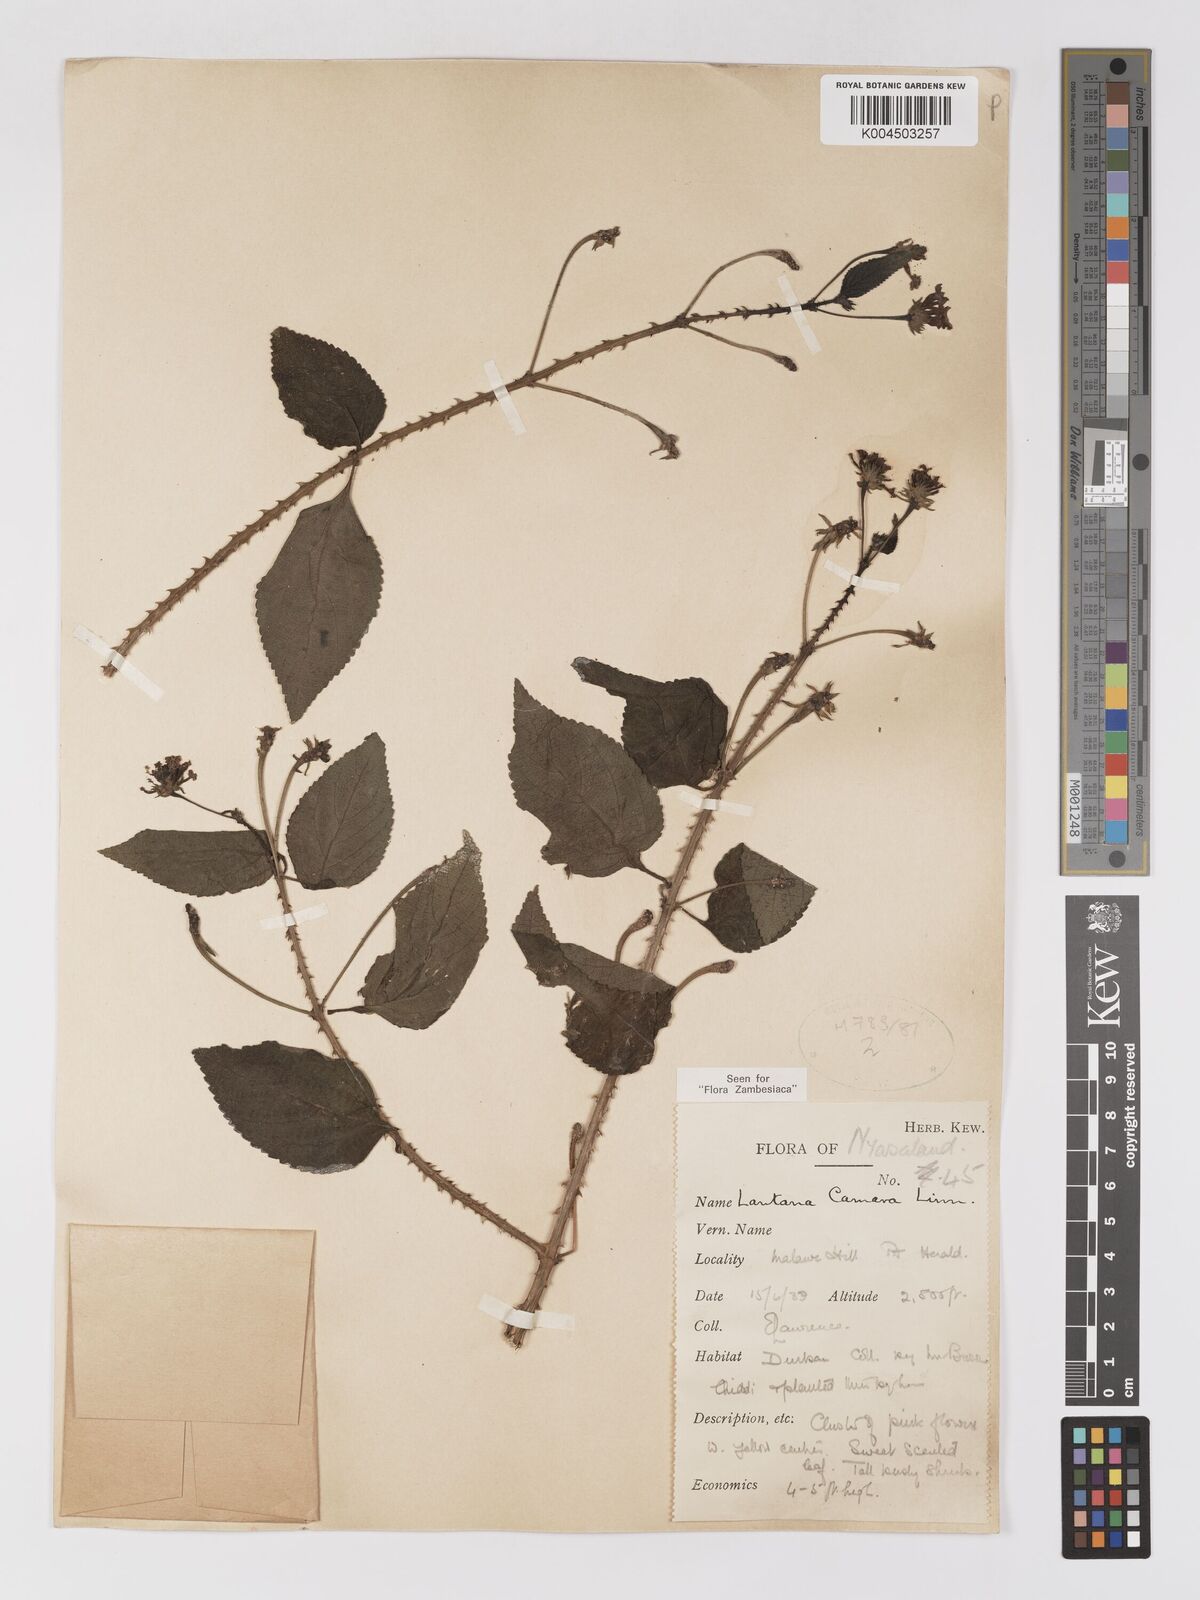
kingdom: Plantae
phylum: Tracheophyta
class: Magnoliopsida
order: Lamiales
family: Verbenaceae
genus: Lantana
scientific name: Lantana camara
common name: Lantana
